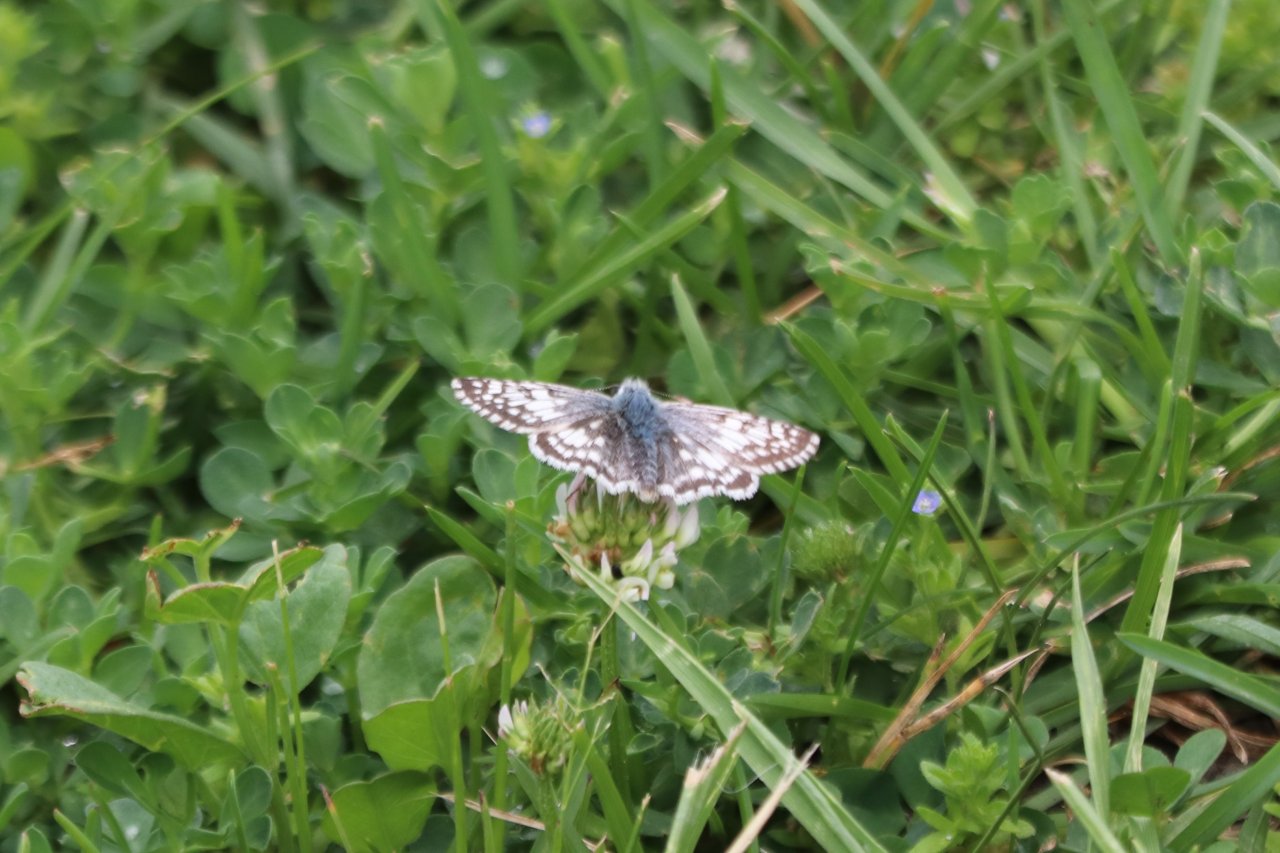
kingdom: Animalia
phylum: Arthropoda
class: Insecta
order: Lepidoptera
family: Hesperiidae
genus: Pyrgus
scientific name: Pyrgus communis
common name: Common Checkered-Skipper
